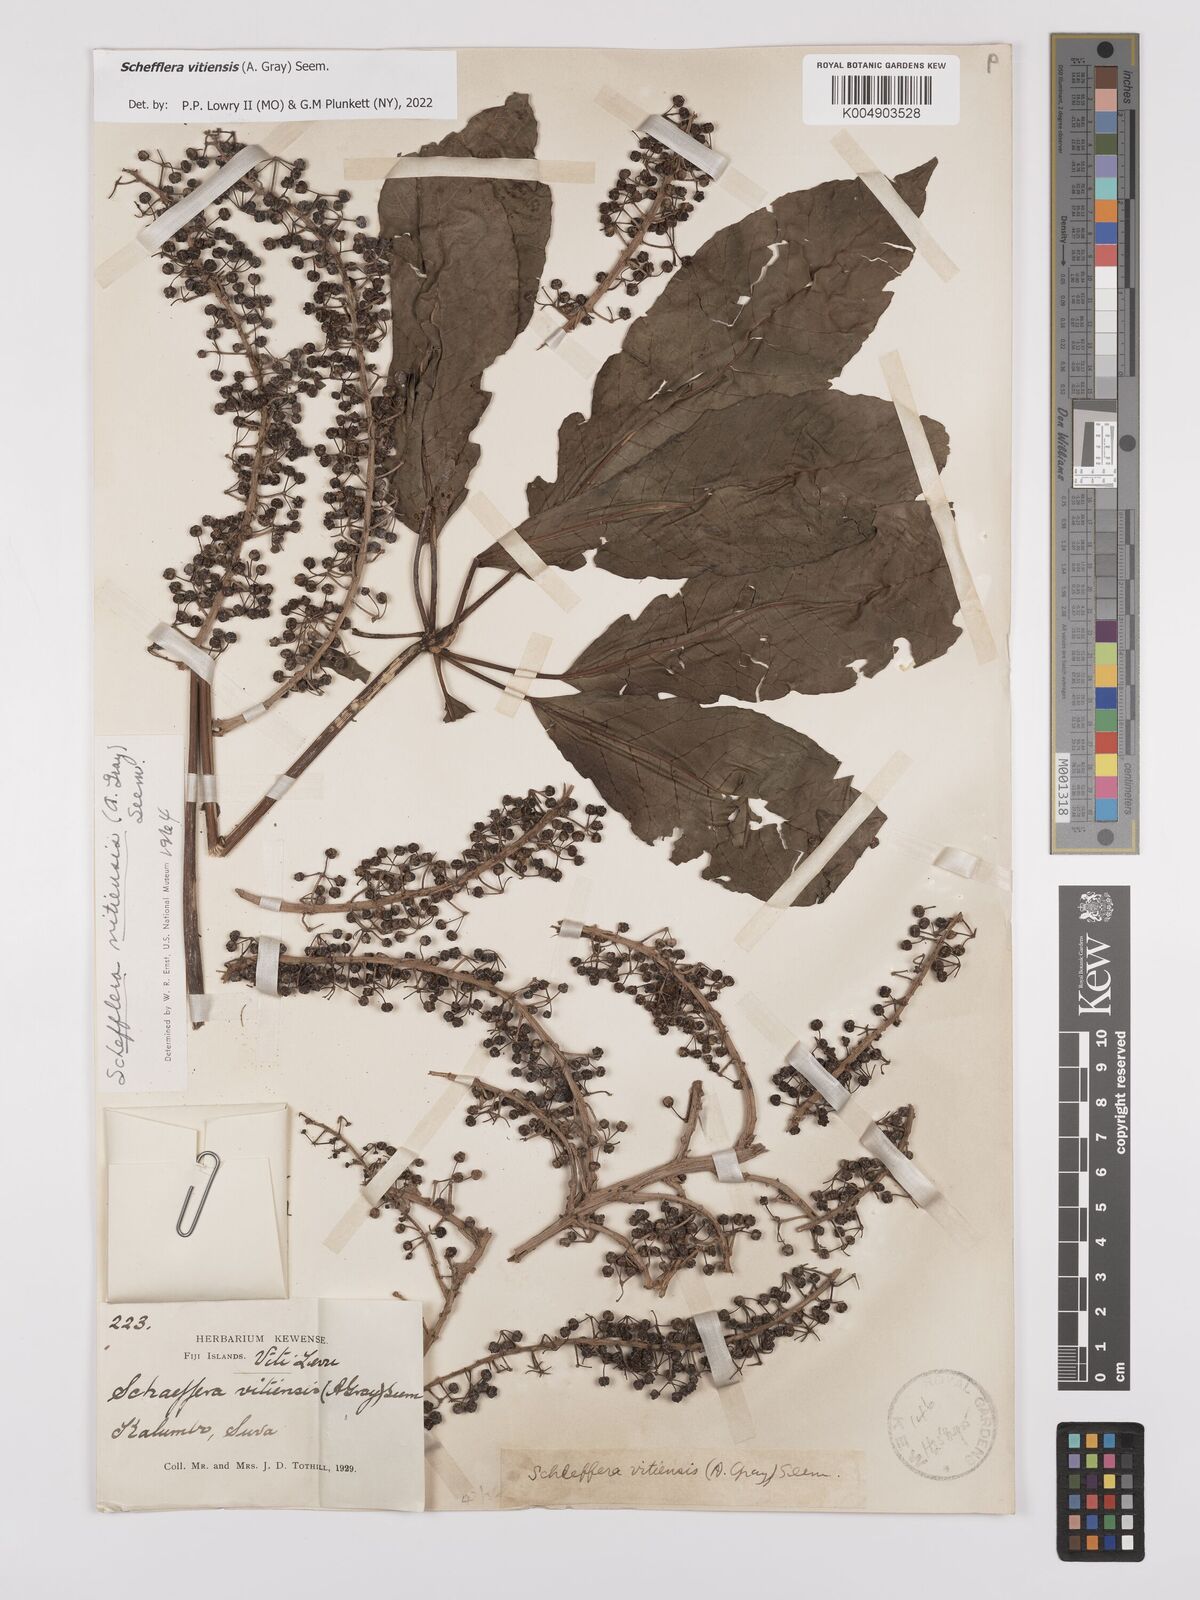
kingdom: Plantae
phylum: Tracheophyta
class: Magnoliopsida
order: Apiales
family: Araliaceae
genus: Schefflera
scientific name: Schefflera vitiensis
